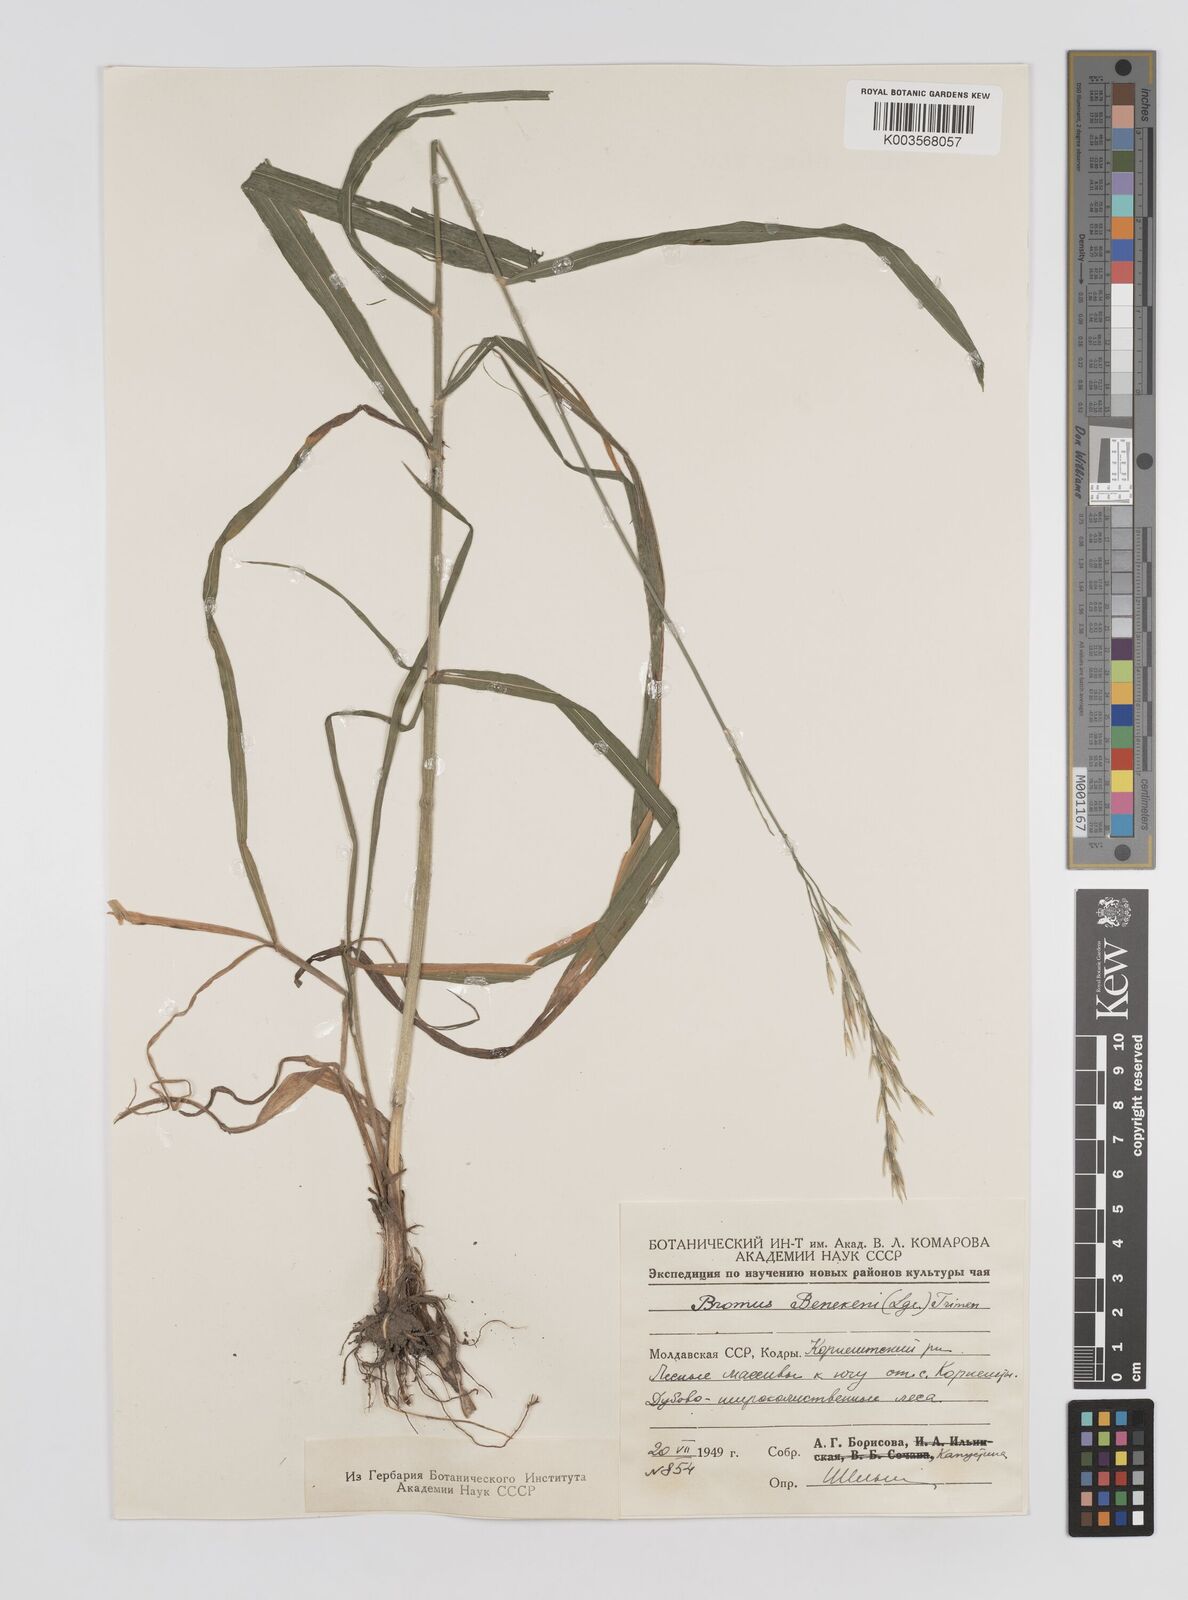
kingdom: Plantae
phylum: Tracheophyta
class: Liliopsida
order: Poales
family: Poaceae
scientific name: Poaceae
